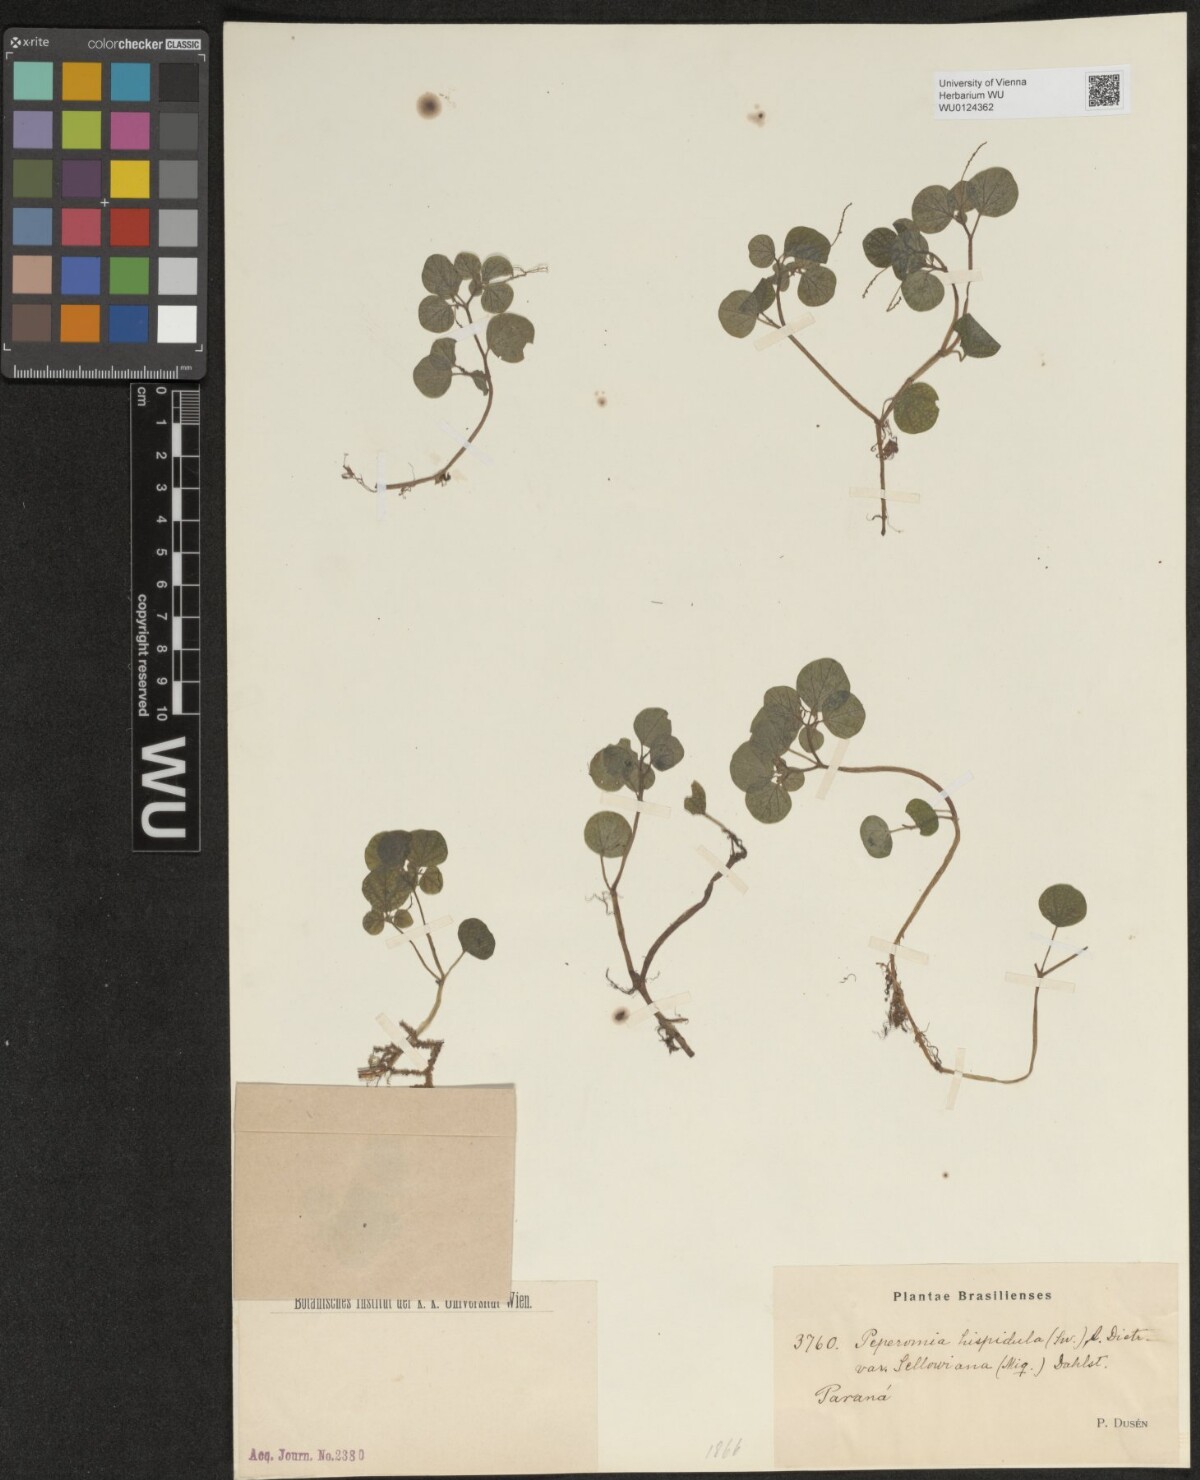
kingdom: Plantae
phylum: Tracheophyta
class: Magnoliopsida
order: Piperales
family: Piperaceae
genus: Peperomia
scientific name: Peperomia hispidula
